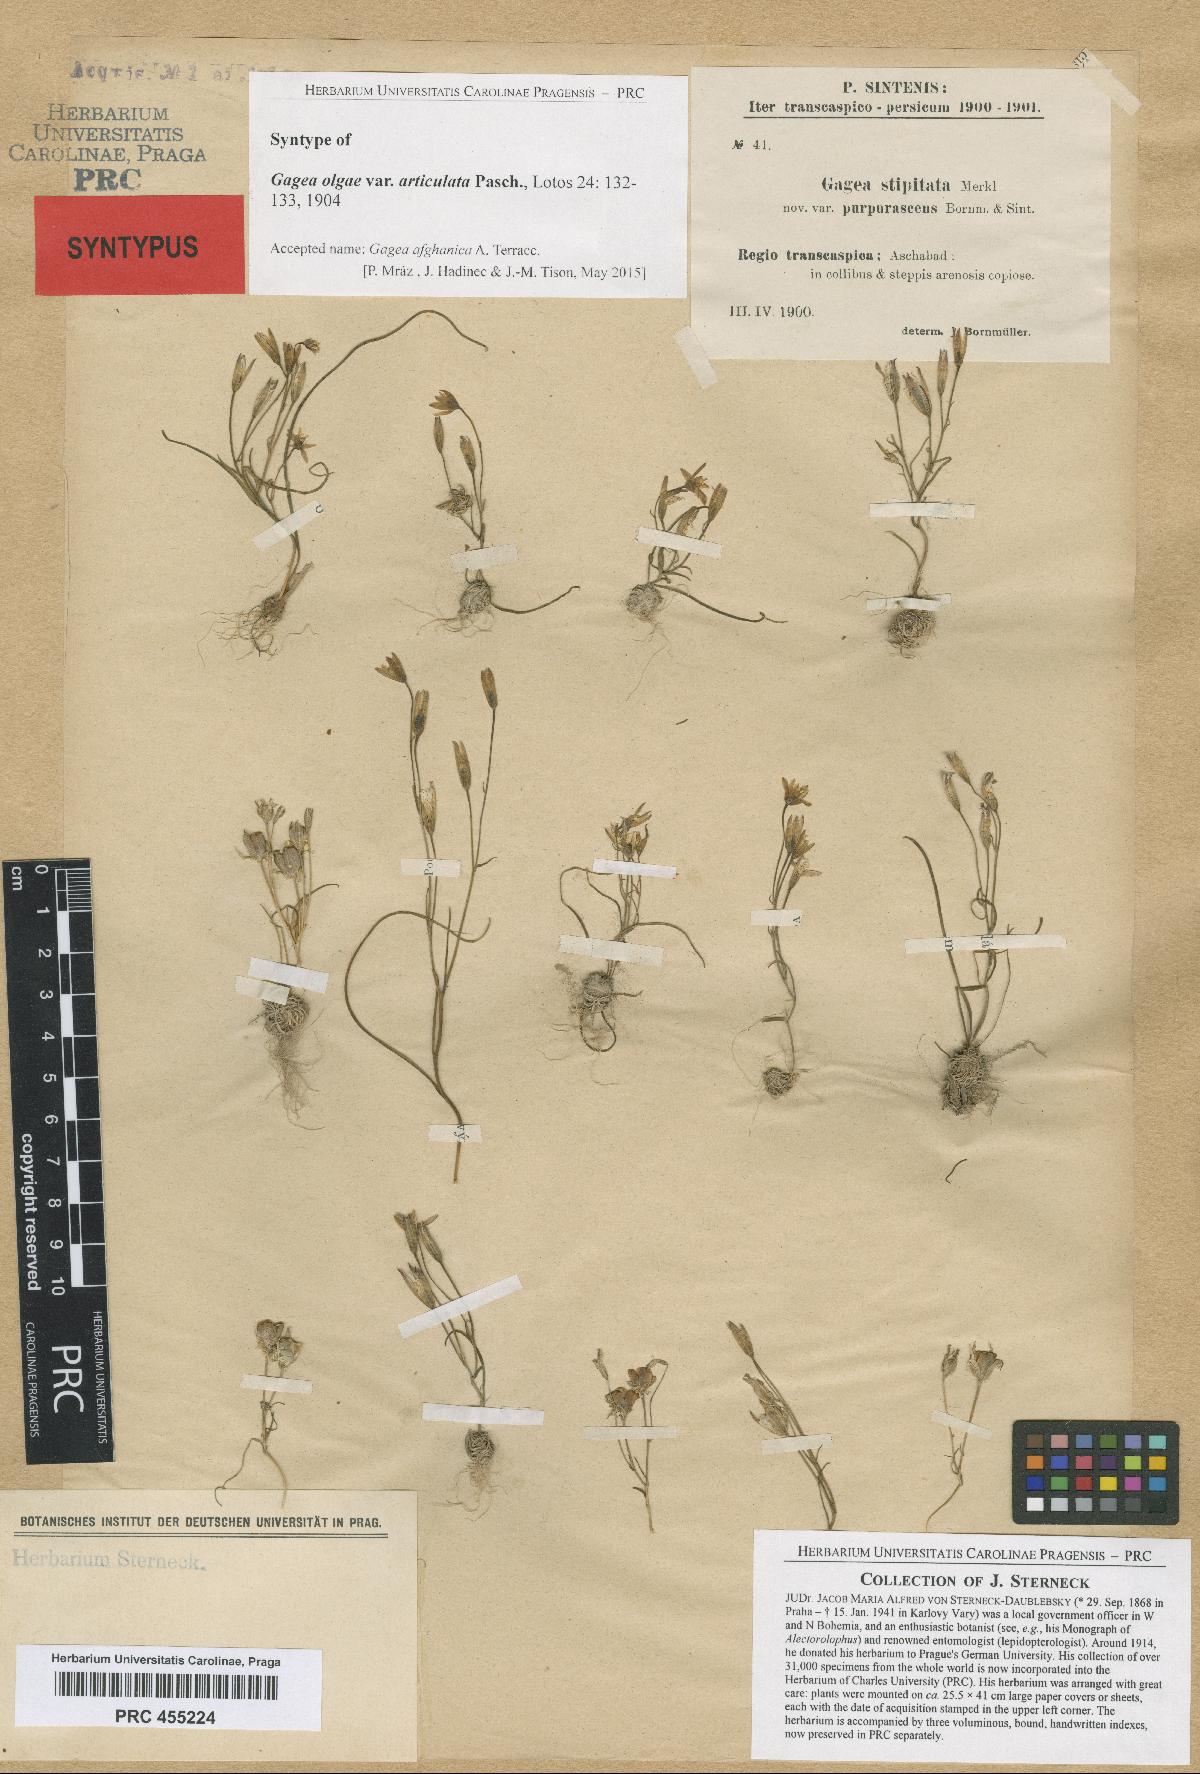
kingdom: Plantae
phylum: Tracheophyta
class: Liliopsida
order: Liliales
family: Liliaceae
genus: Gagea
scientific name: Gagea afghanica
